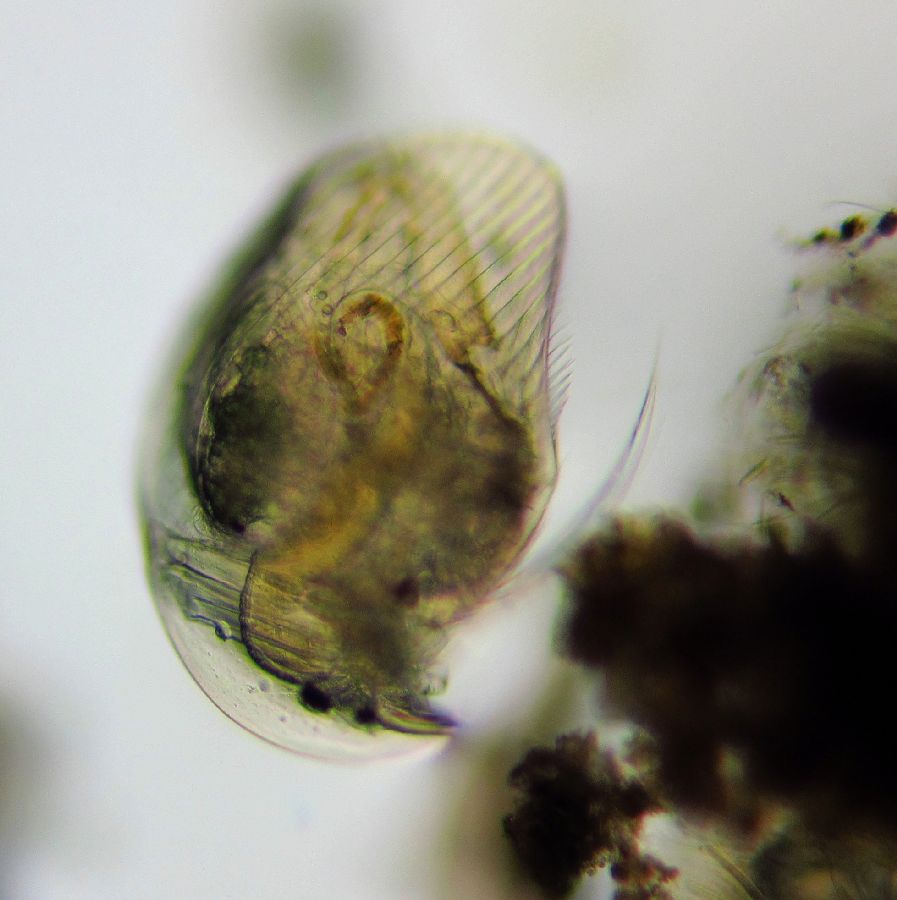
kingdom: Animalia
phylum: Arthropoda
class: Branchiopoda
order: Diplostraca
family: Chydoridae
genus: Acroperus
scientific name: Acroperus angustatus
